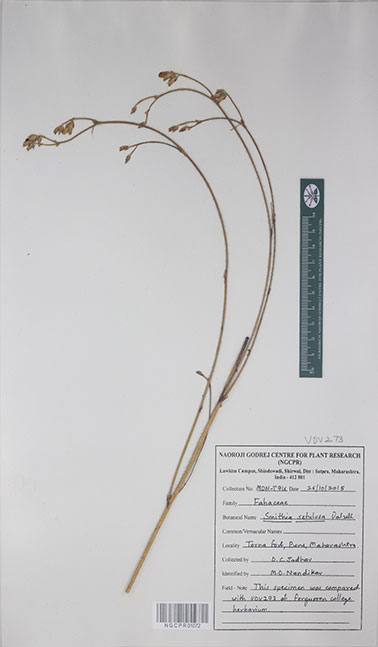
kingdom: Plantae
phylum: Tracheophyta
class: Magnoliopsida
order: Fabales
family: Fabaceae
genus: Smithia
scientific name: Smithia setulosa
